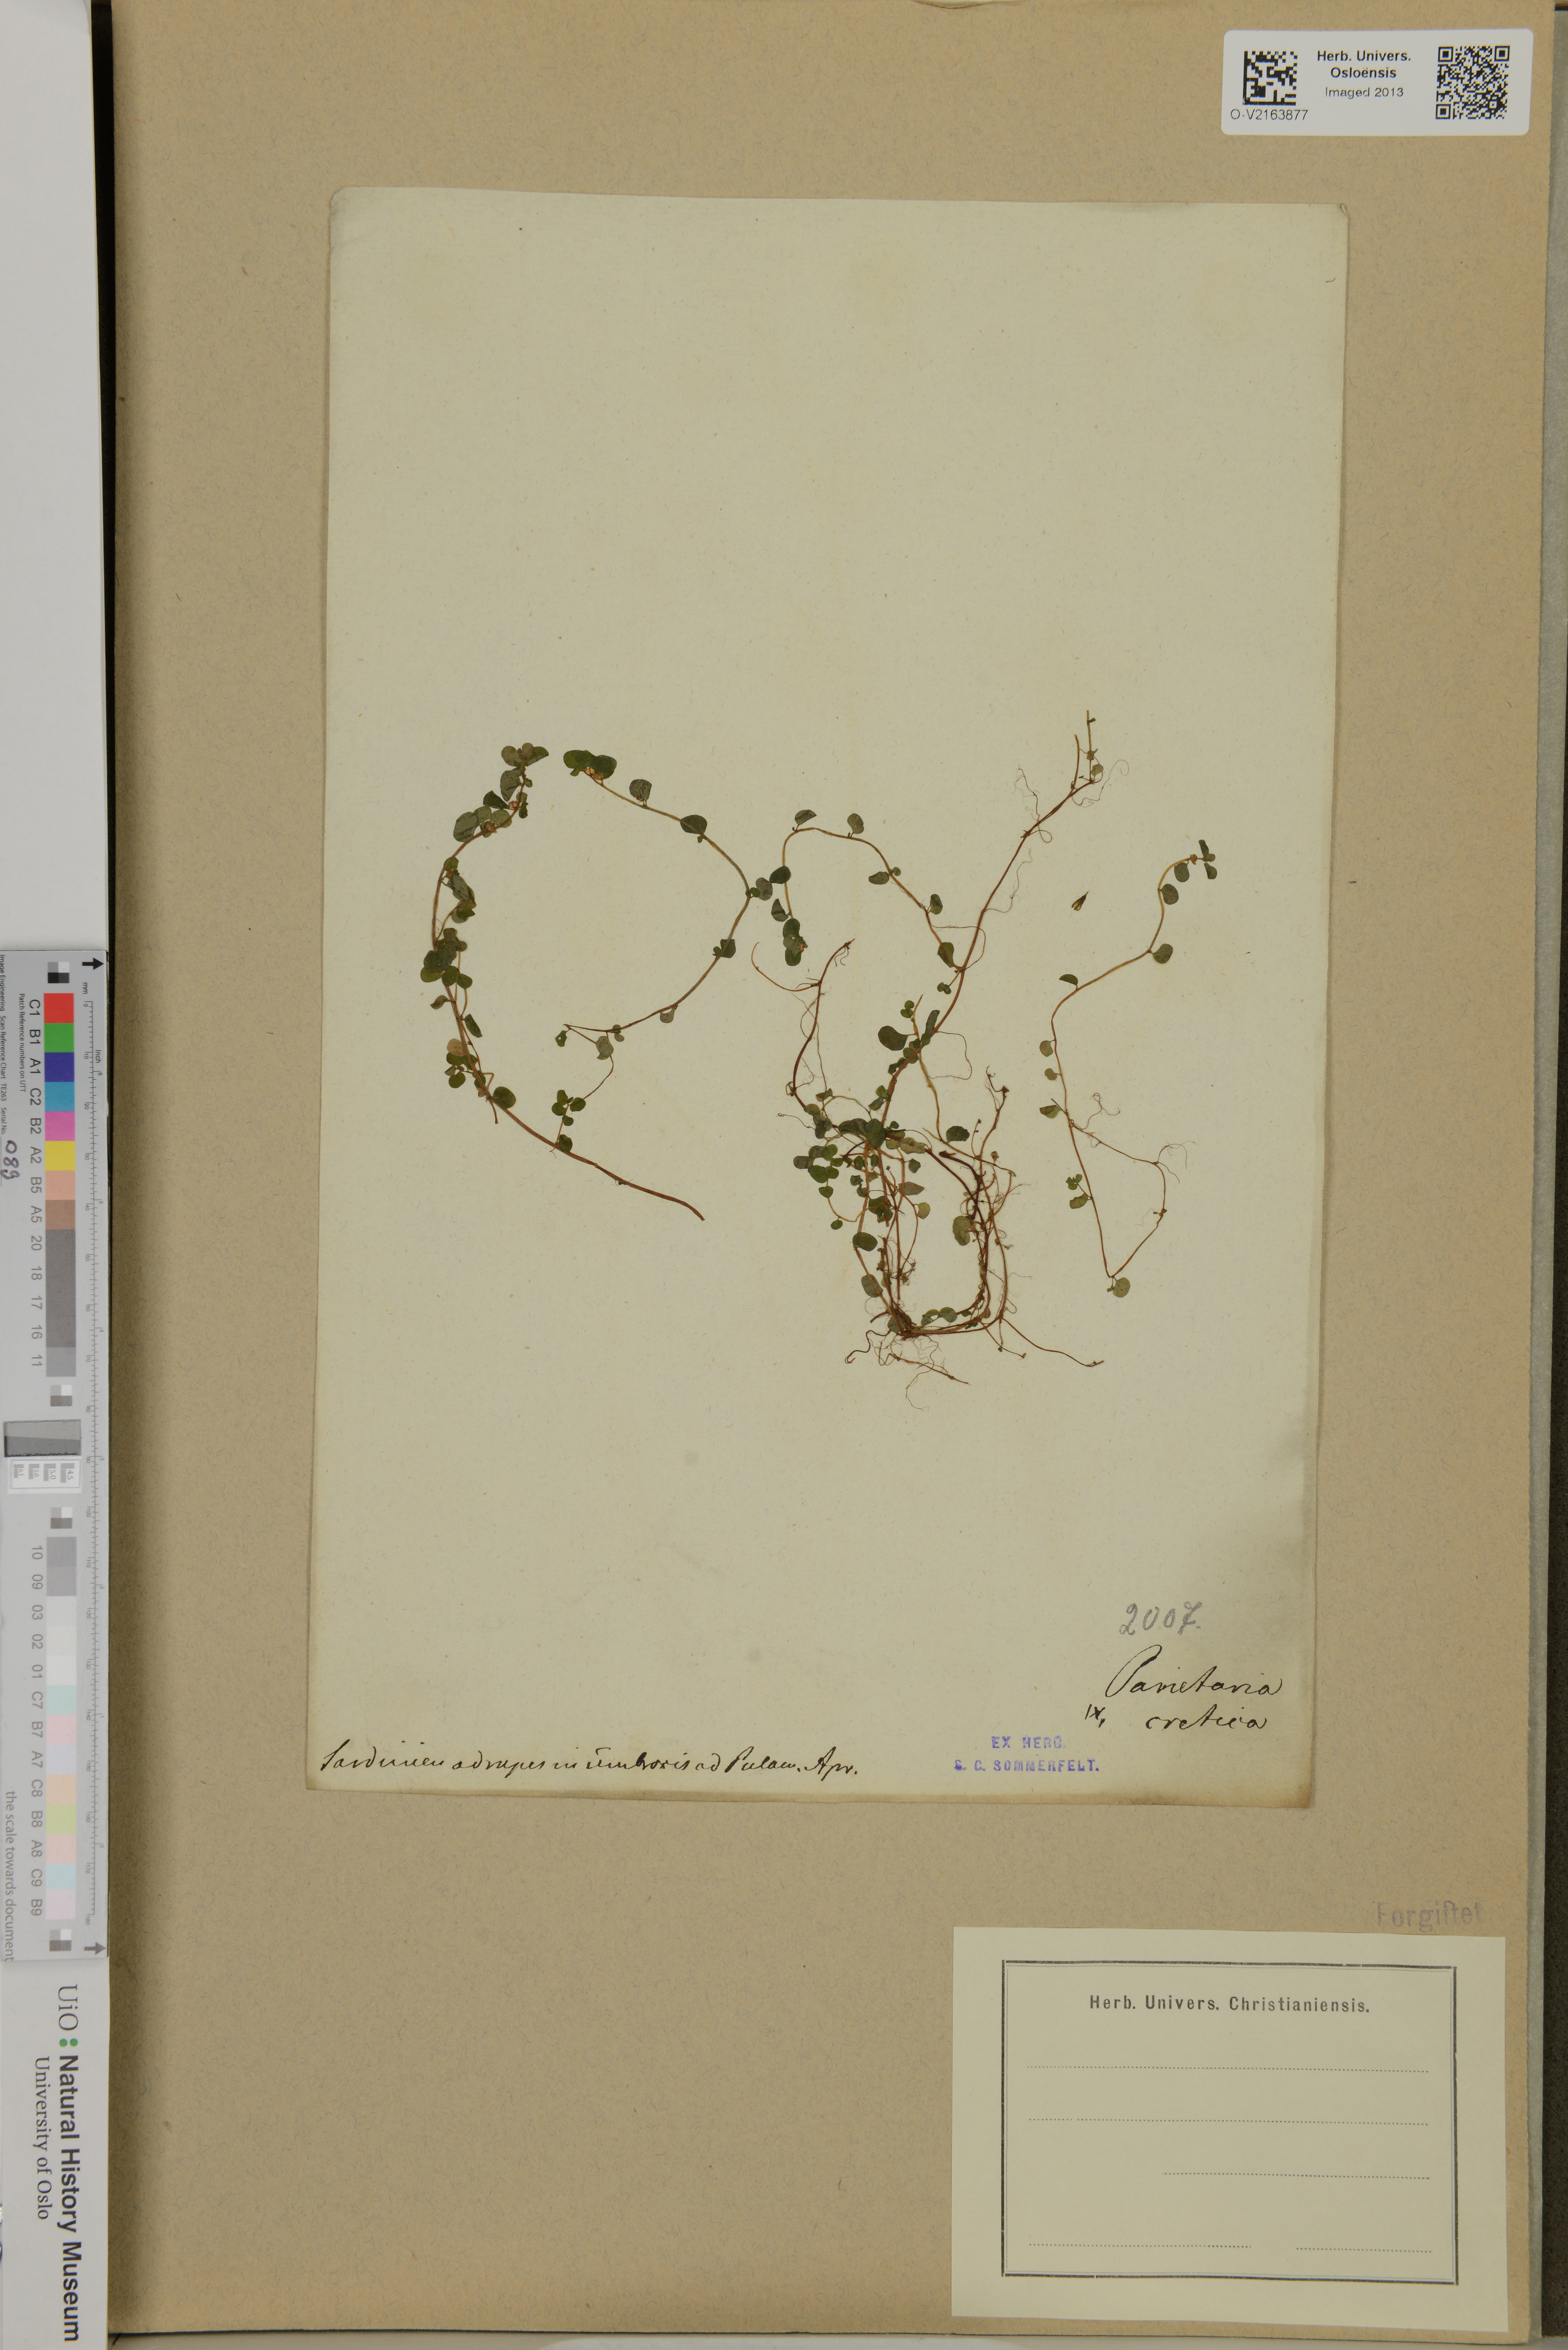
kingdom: Plantae
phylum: Tracheophyta
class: Magnoliopsida
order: Rosales
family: Urticaceae
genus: Parietaria
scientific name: Parietaria cretica
